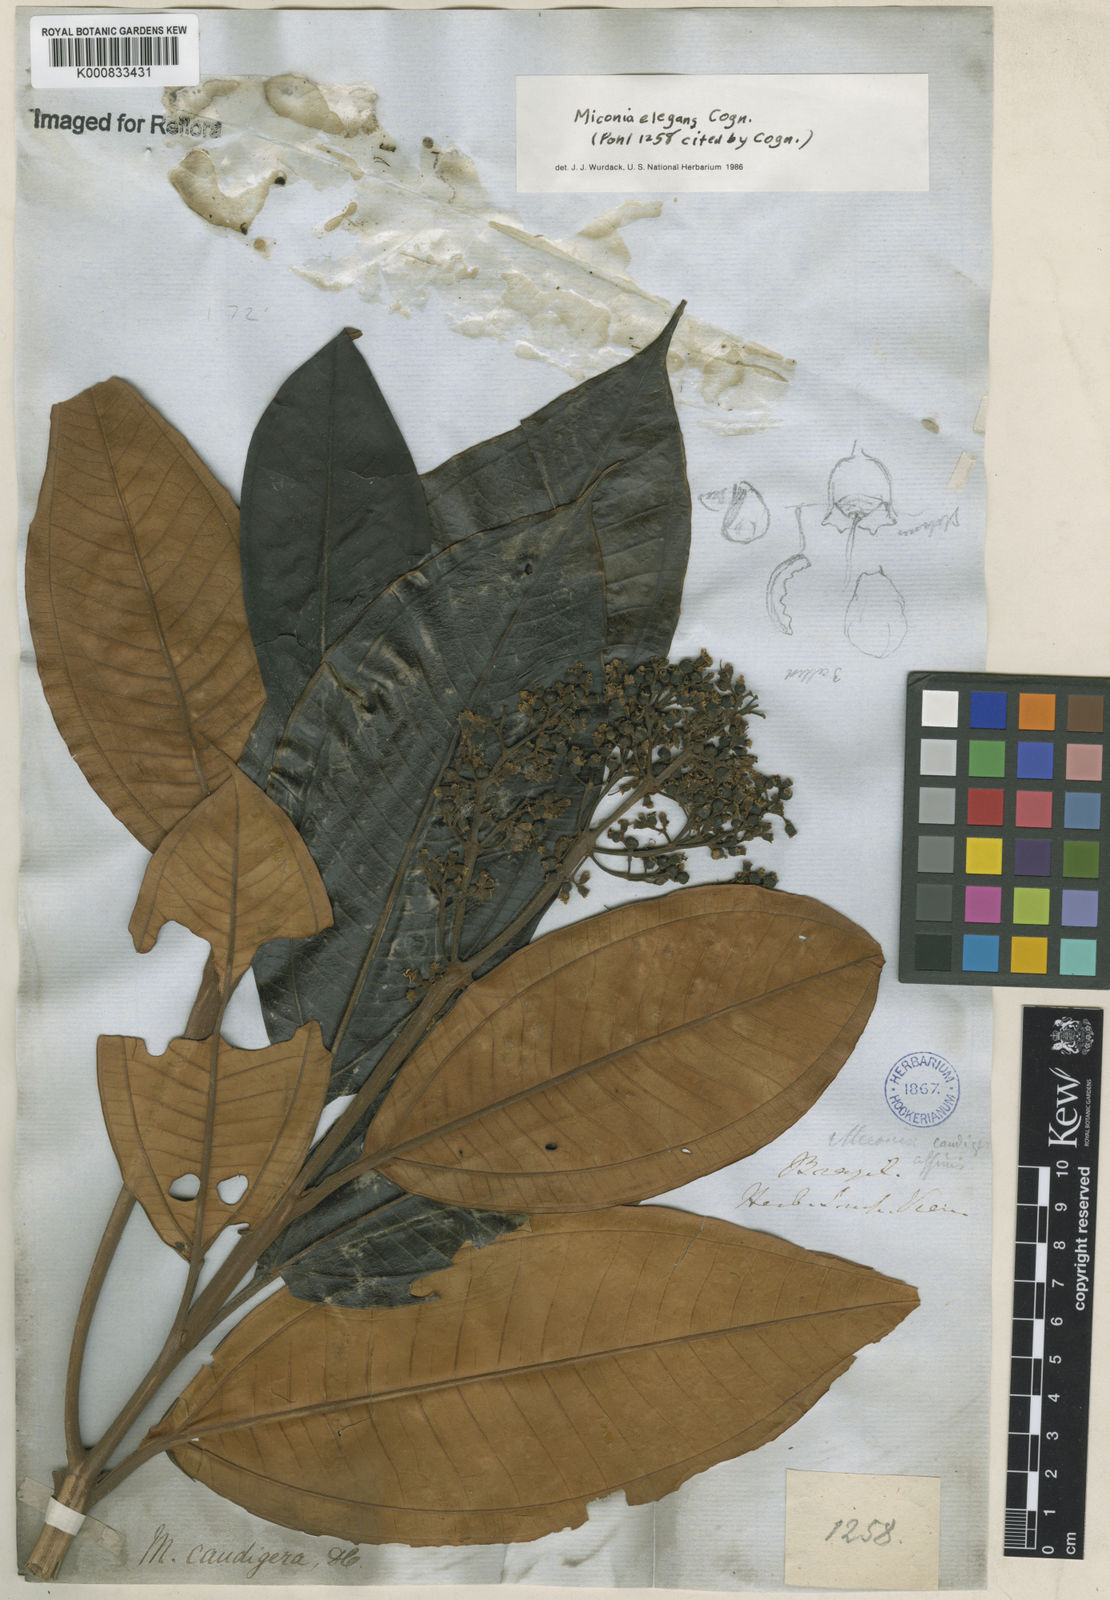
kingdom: Plantae
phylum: Tracheophyta
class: Magnoliopsida
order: Myrtales
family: Melastomataceae
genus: Miconia
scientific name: Miconia elegans
